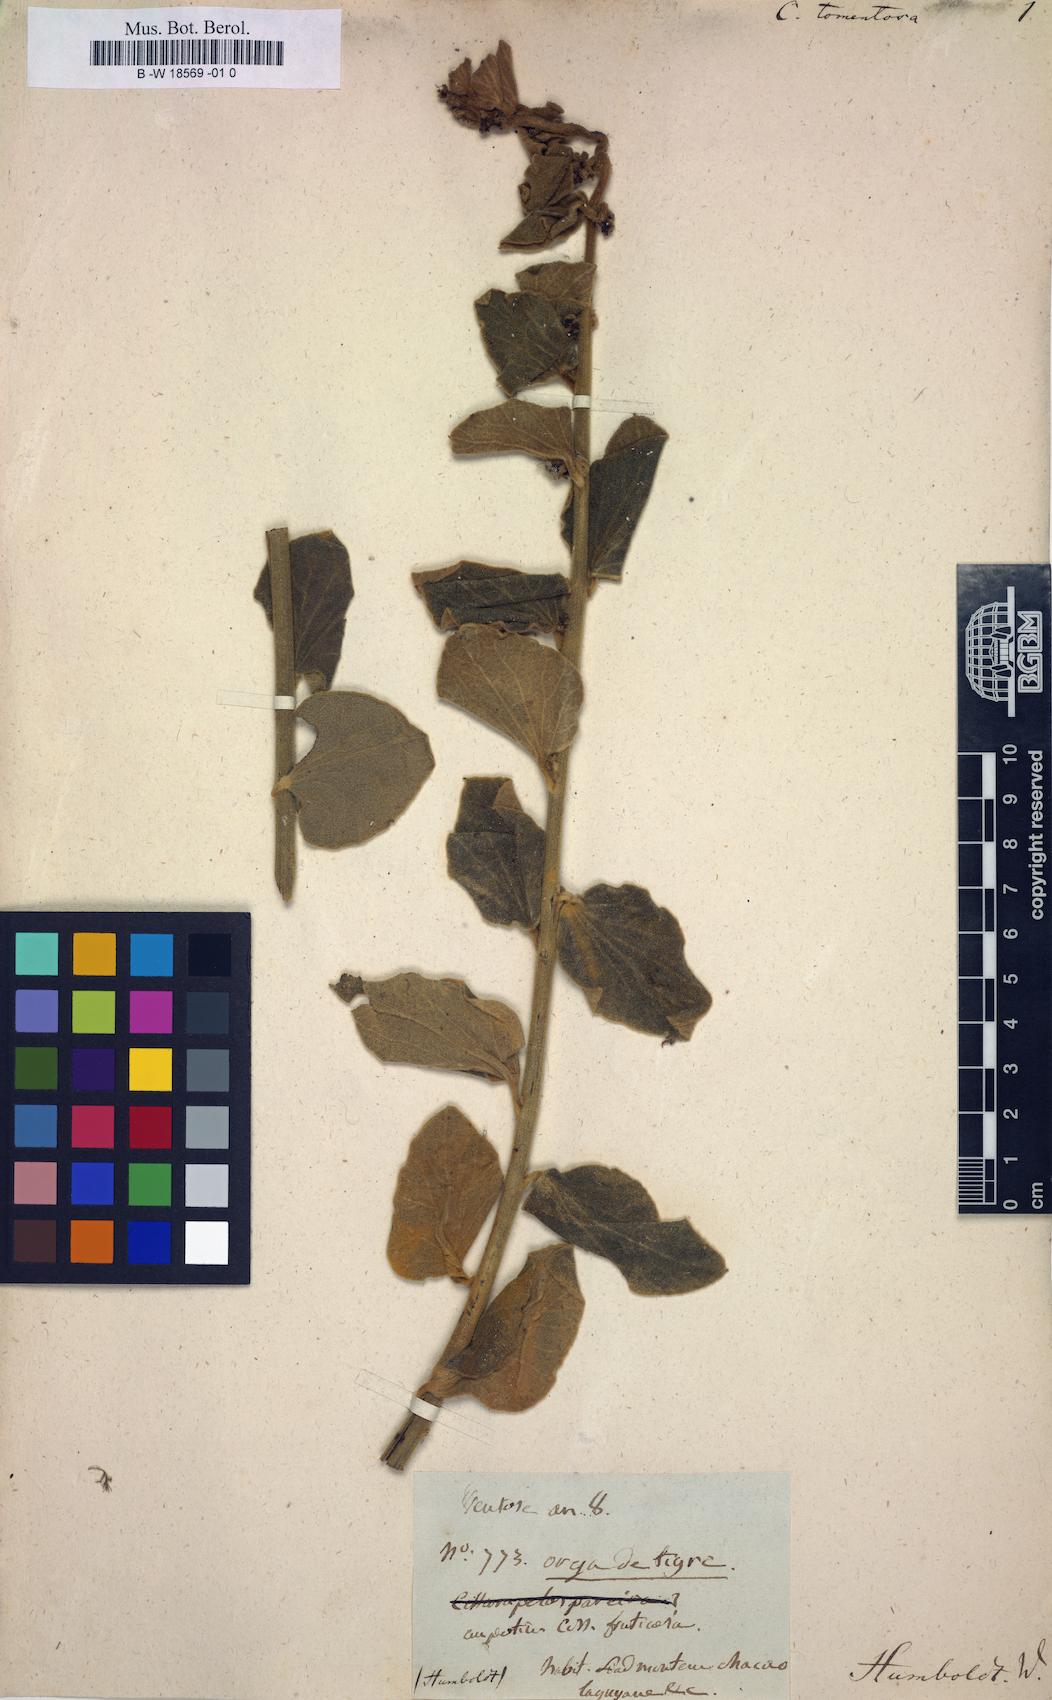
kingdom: Plantae
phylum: Tracheophyta
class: Magnoliopsida
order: Ranunculales
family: Menispermaceae
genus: Cissampelos
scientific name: Cissampelos pareira
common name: Velvetleaf
